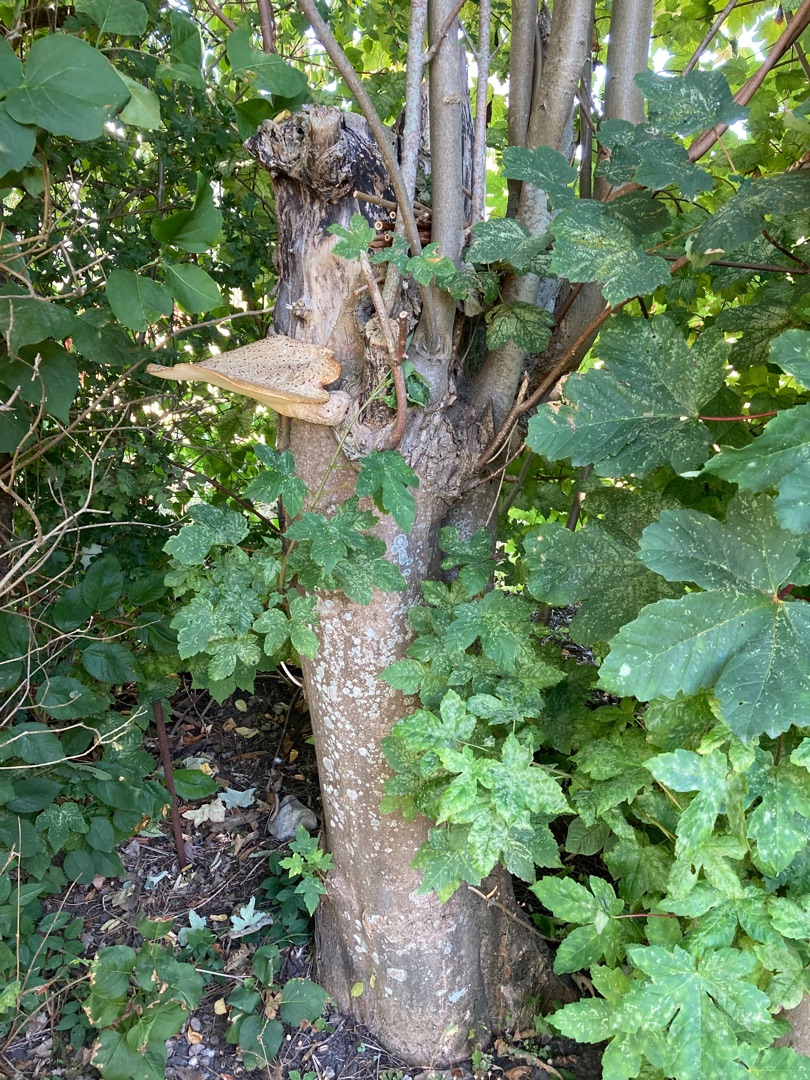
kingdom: Fungi
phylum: Basidiomycota
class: Agaricomycetes
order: Polyporales
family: Polyporaceae
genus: Cerioporus
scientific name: Cerioporus squamosus
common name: Skællet stilkporesvamp
